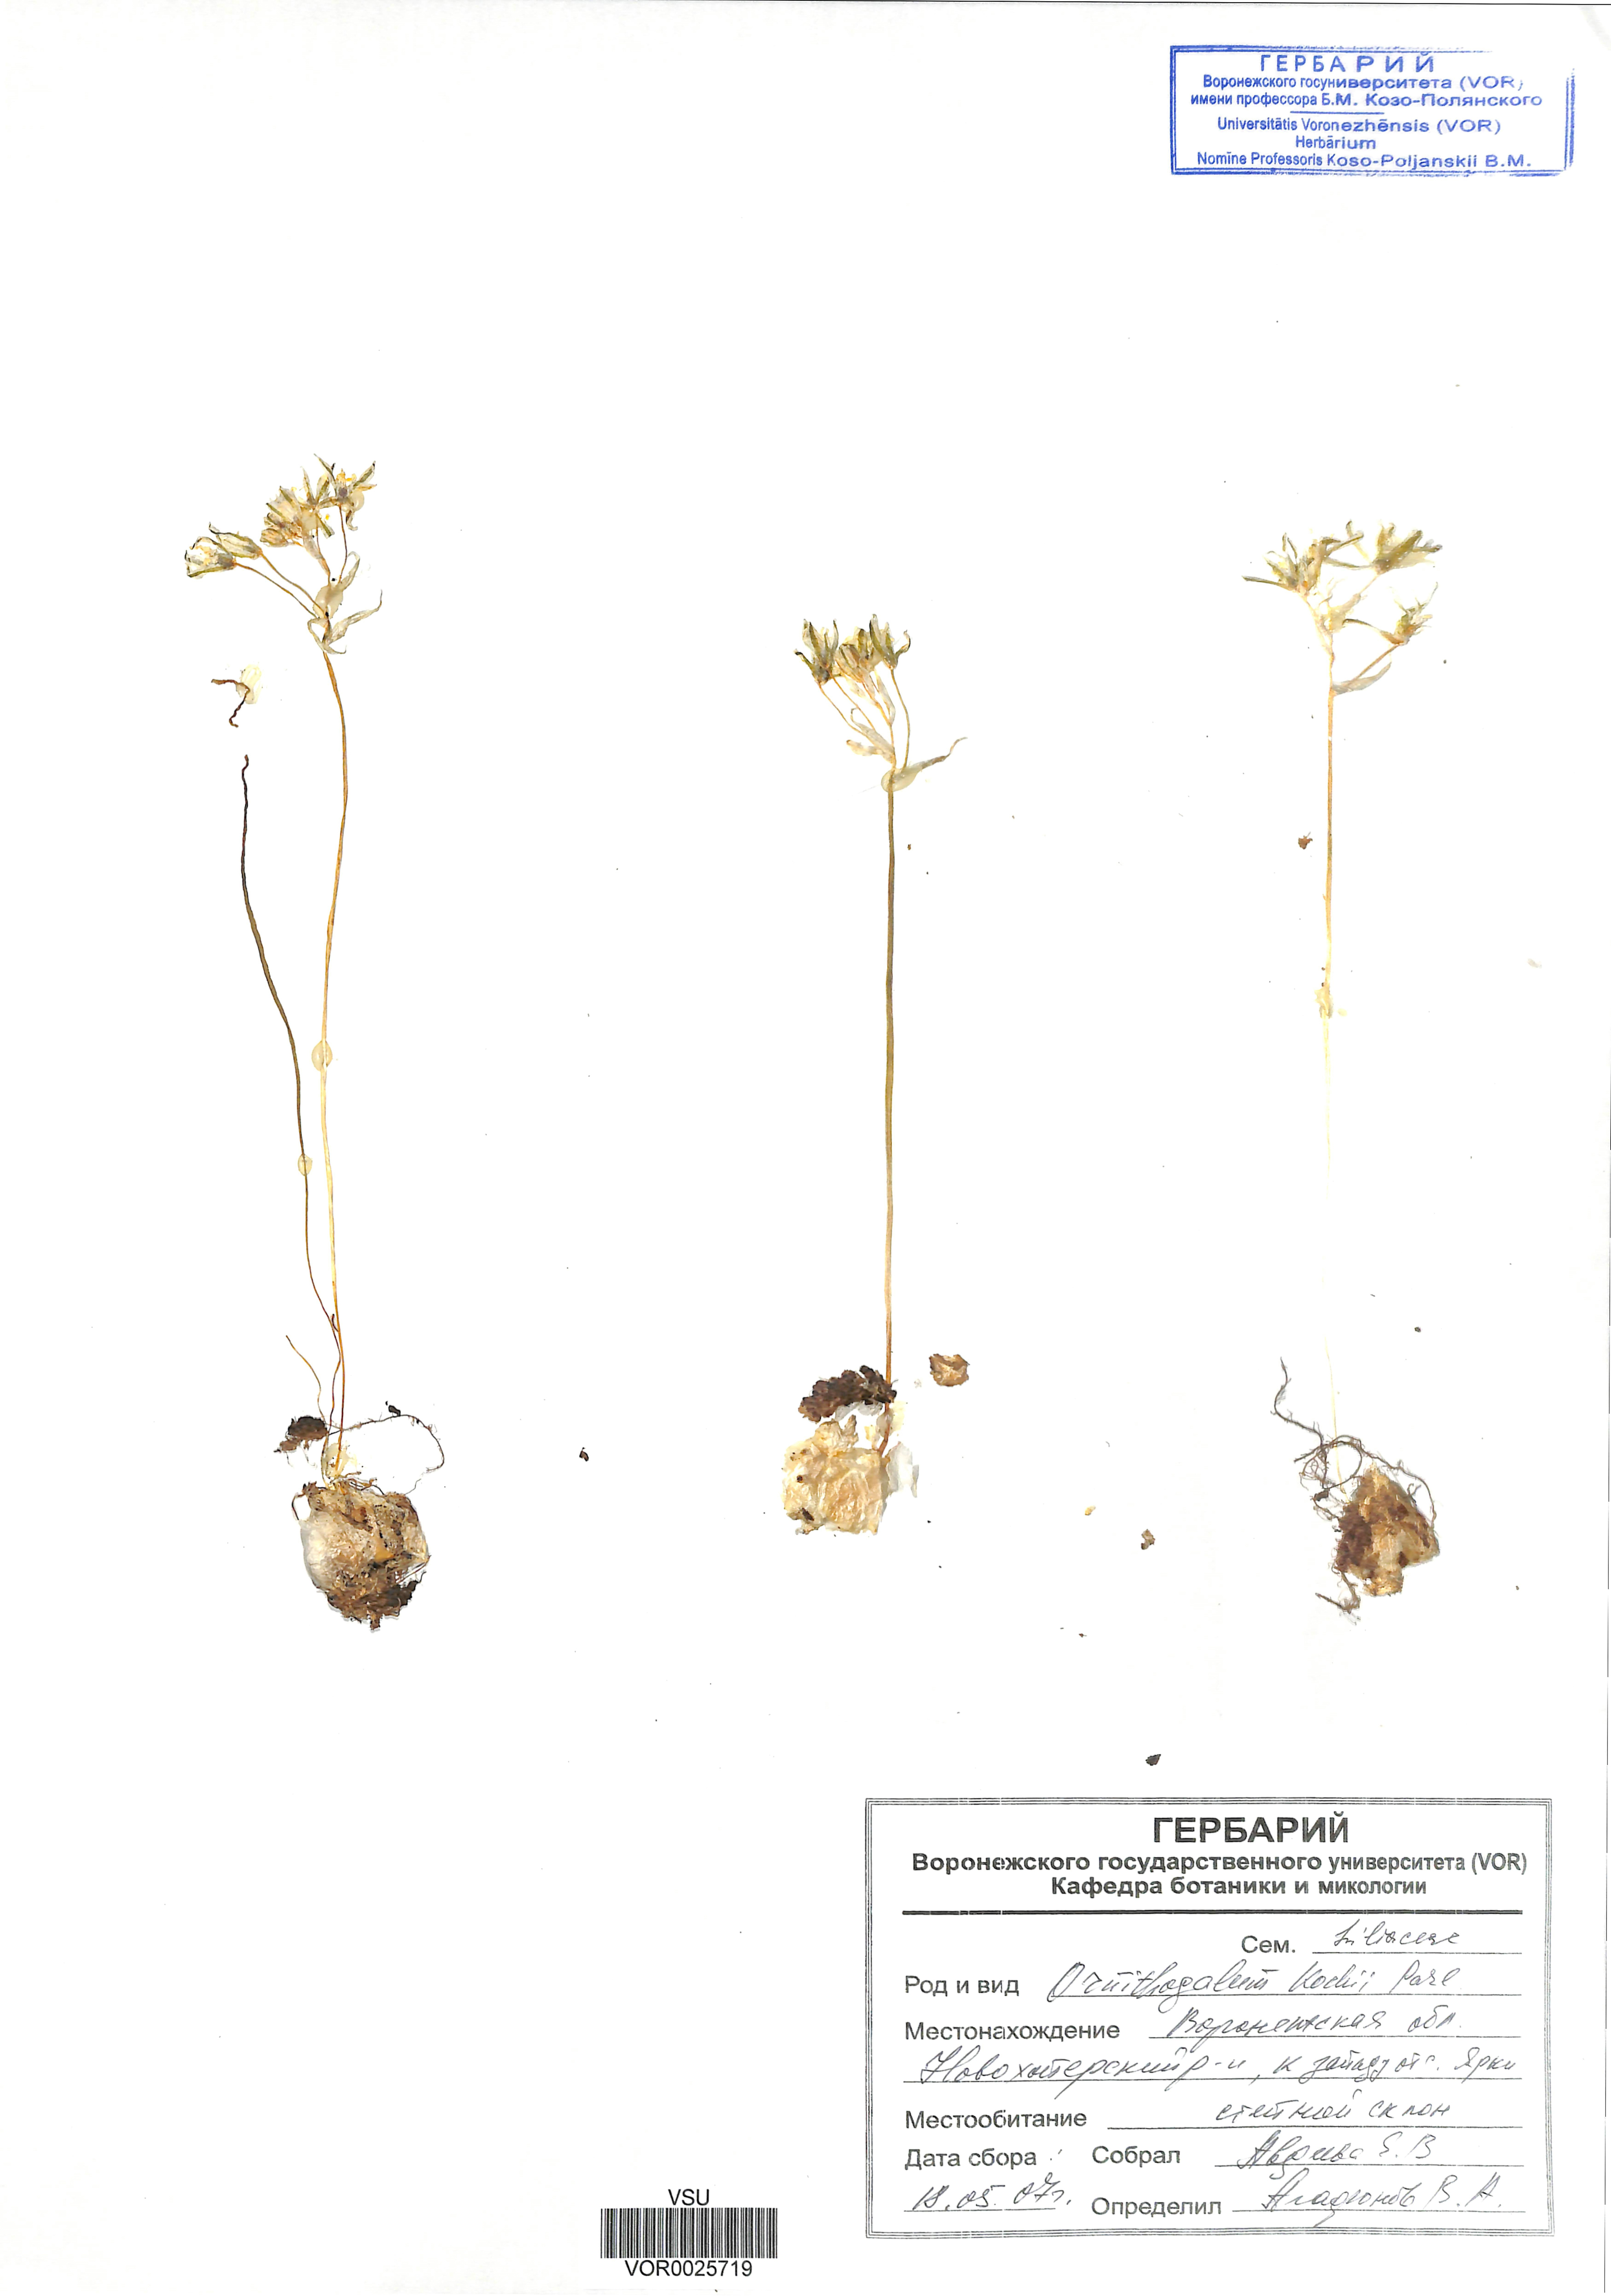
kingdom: Plantae
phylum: Tracheophyta
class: Liliopsida
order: Asparagales
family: Asparagaceae
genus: Ornithogalum
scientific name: Ornithogalum orthophyllum
